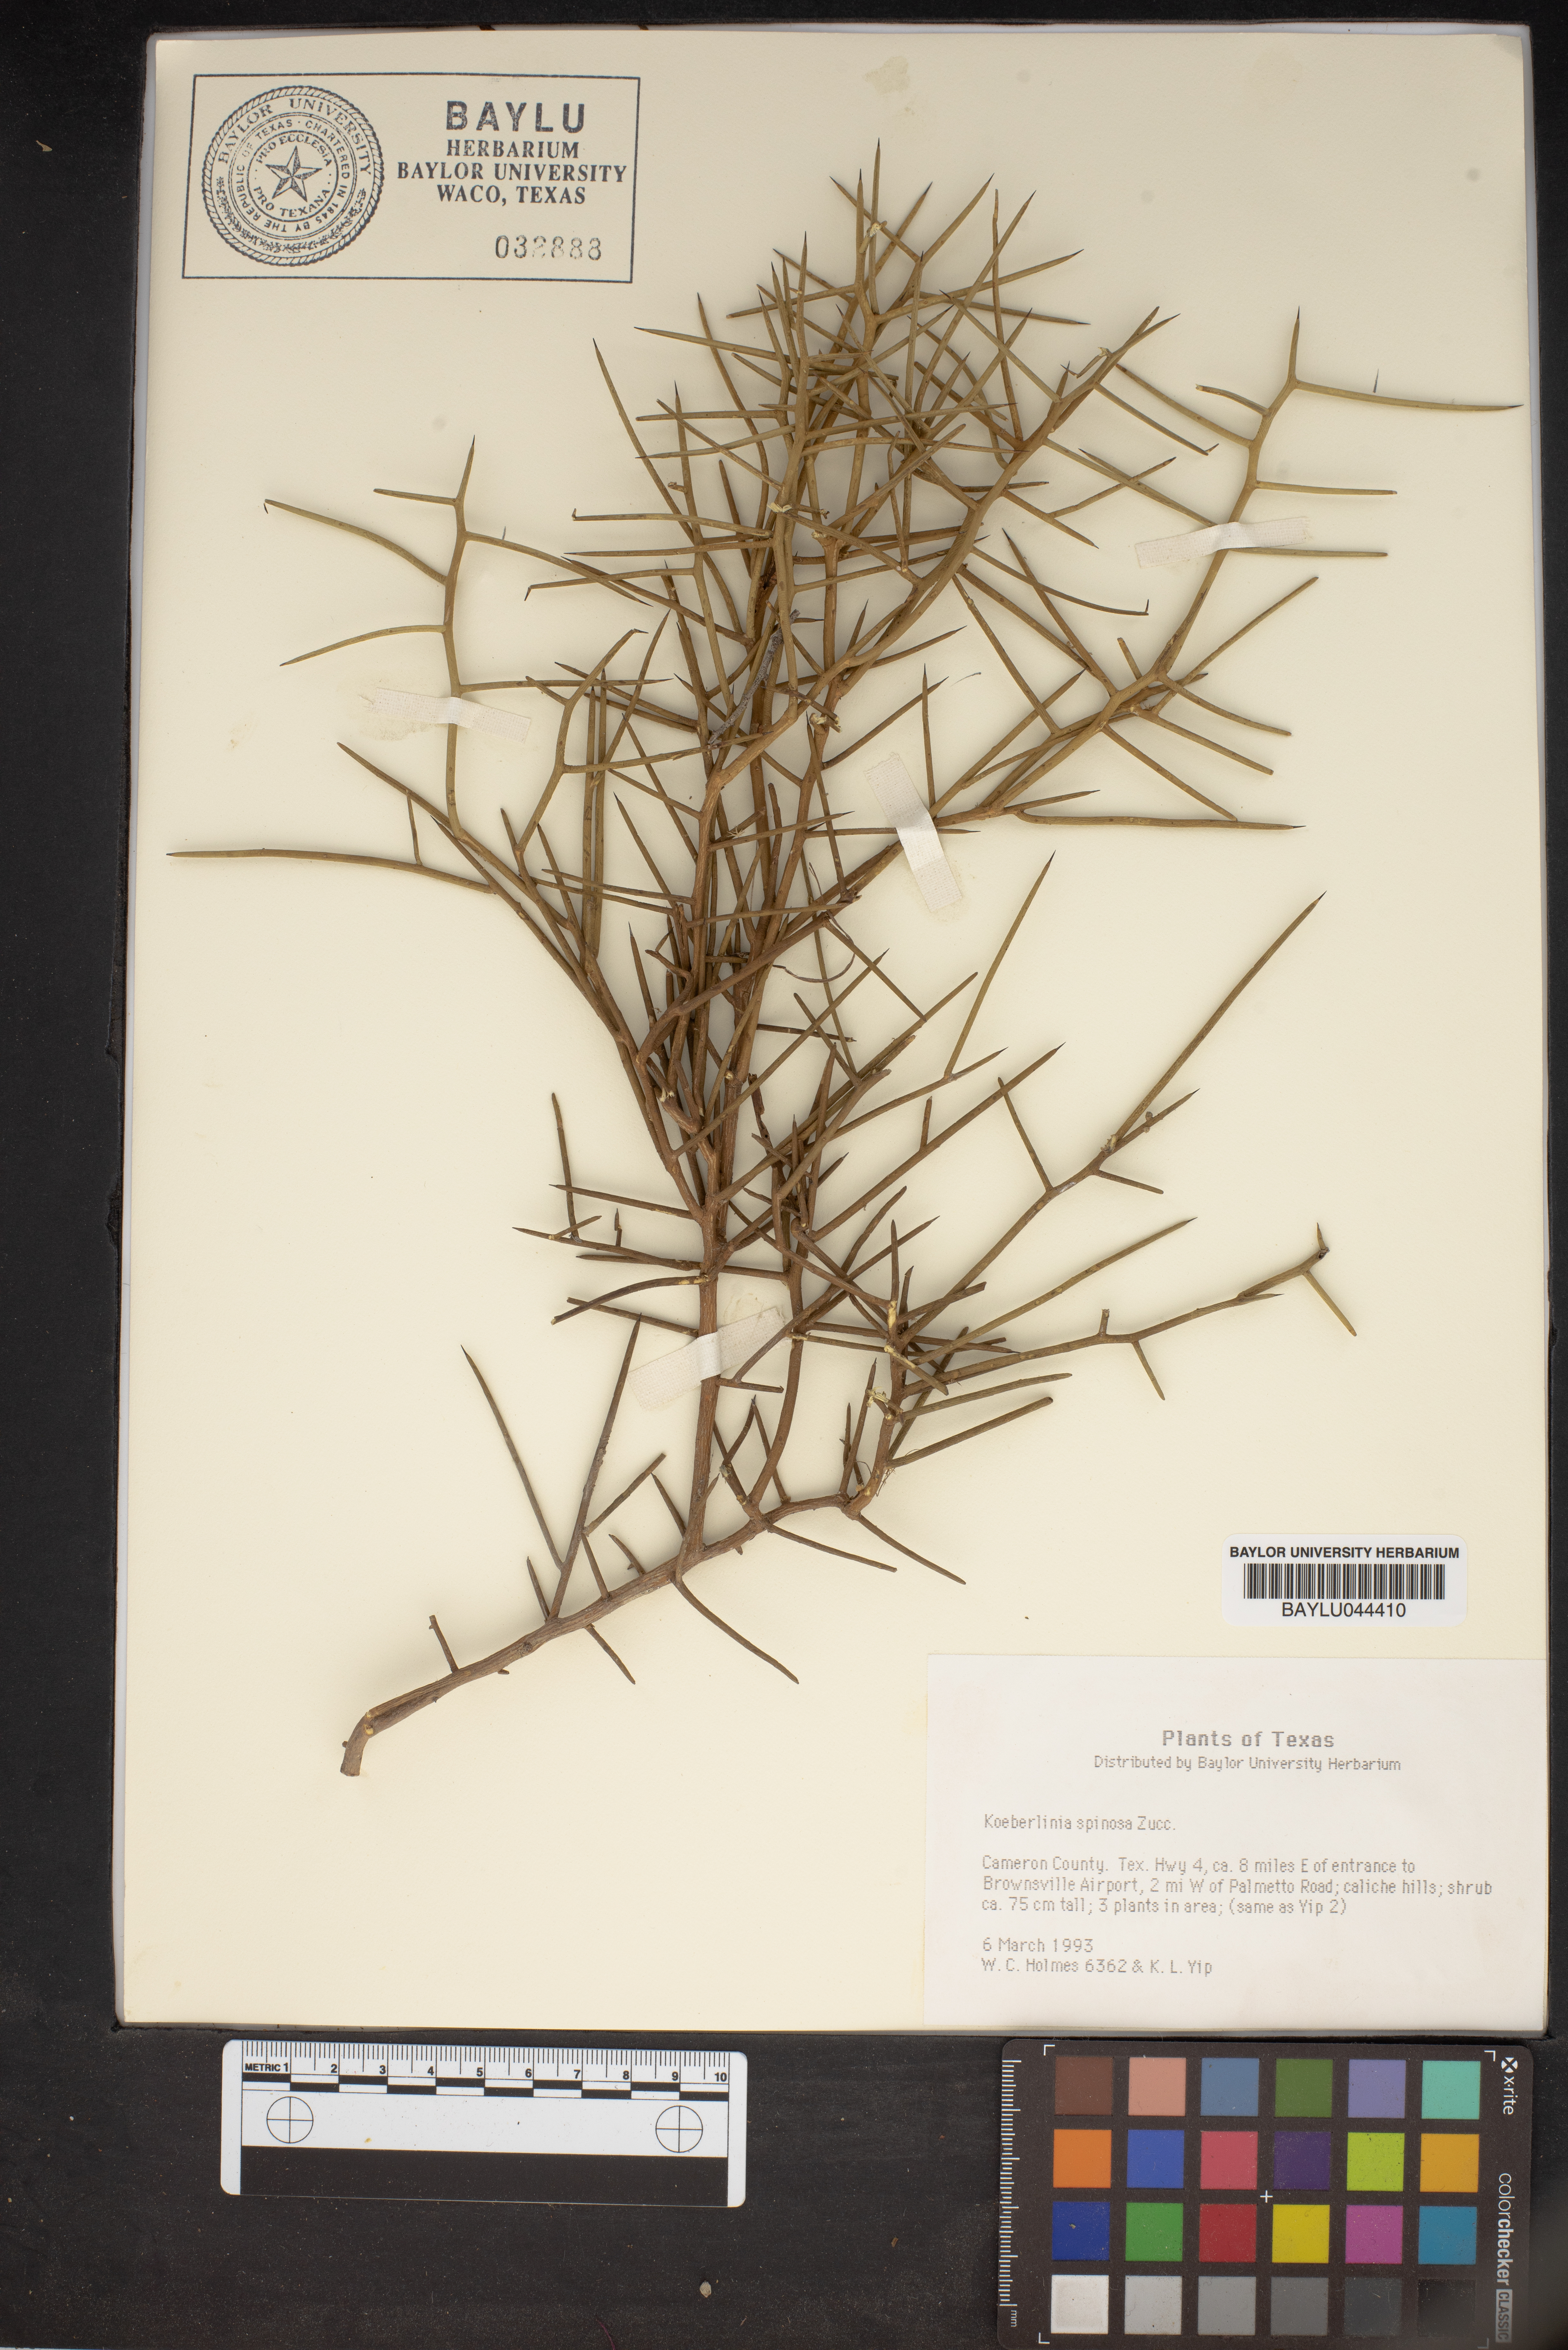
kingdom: Plantae
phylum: Tracheophyta
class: Magnoliopsida
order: Brassicales
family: Koeberliniaceae
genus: Koeberlinia
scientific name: Koeberlinia spinosa
